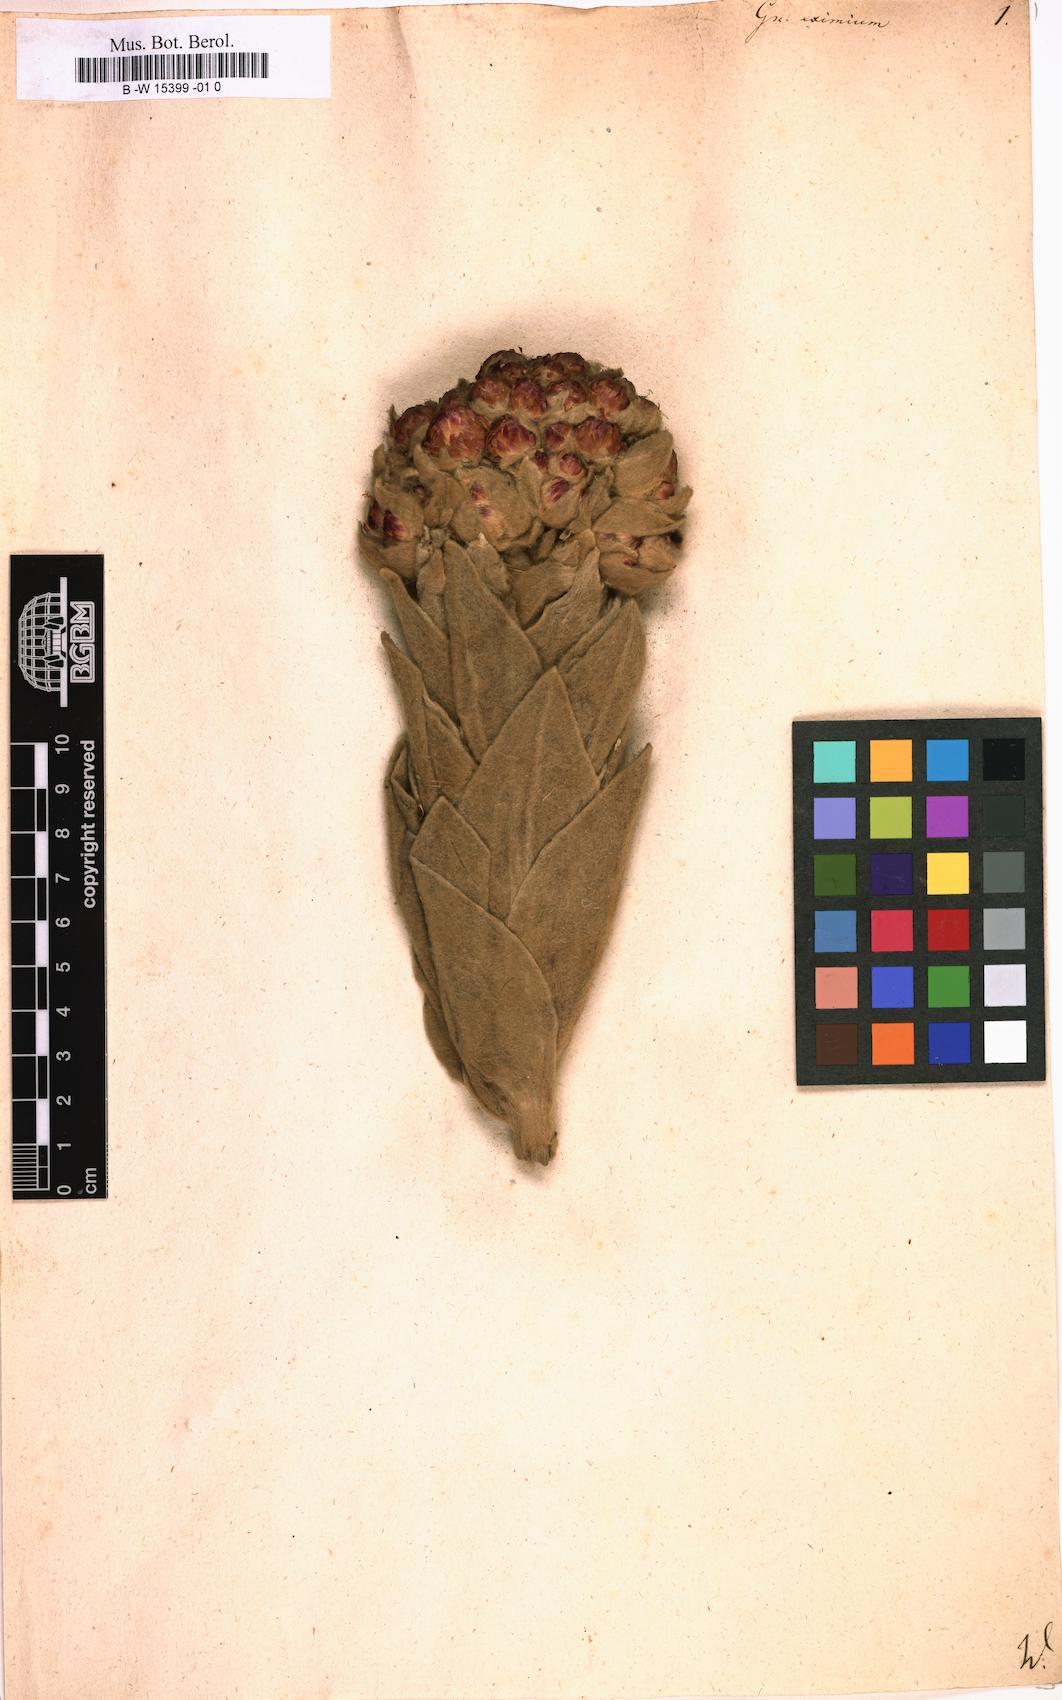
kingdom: Plantae
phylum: Tracheophyta
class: Magnoliopsida
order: Asterales
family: Asteraceae
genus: Argyrotegium
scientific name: Argyrotegium mackayi
